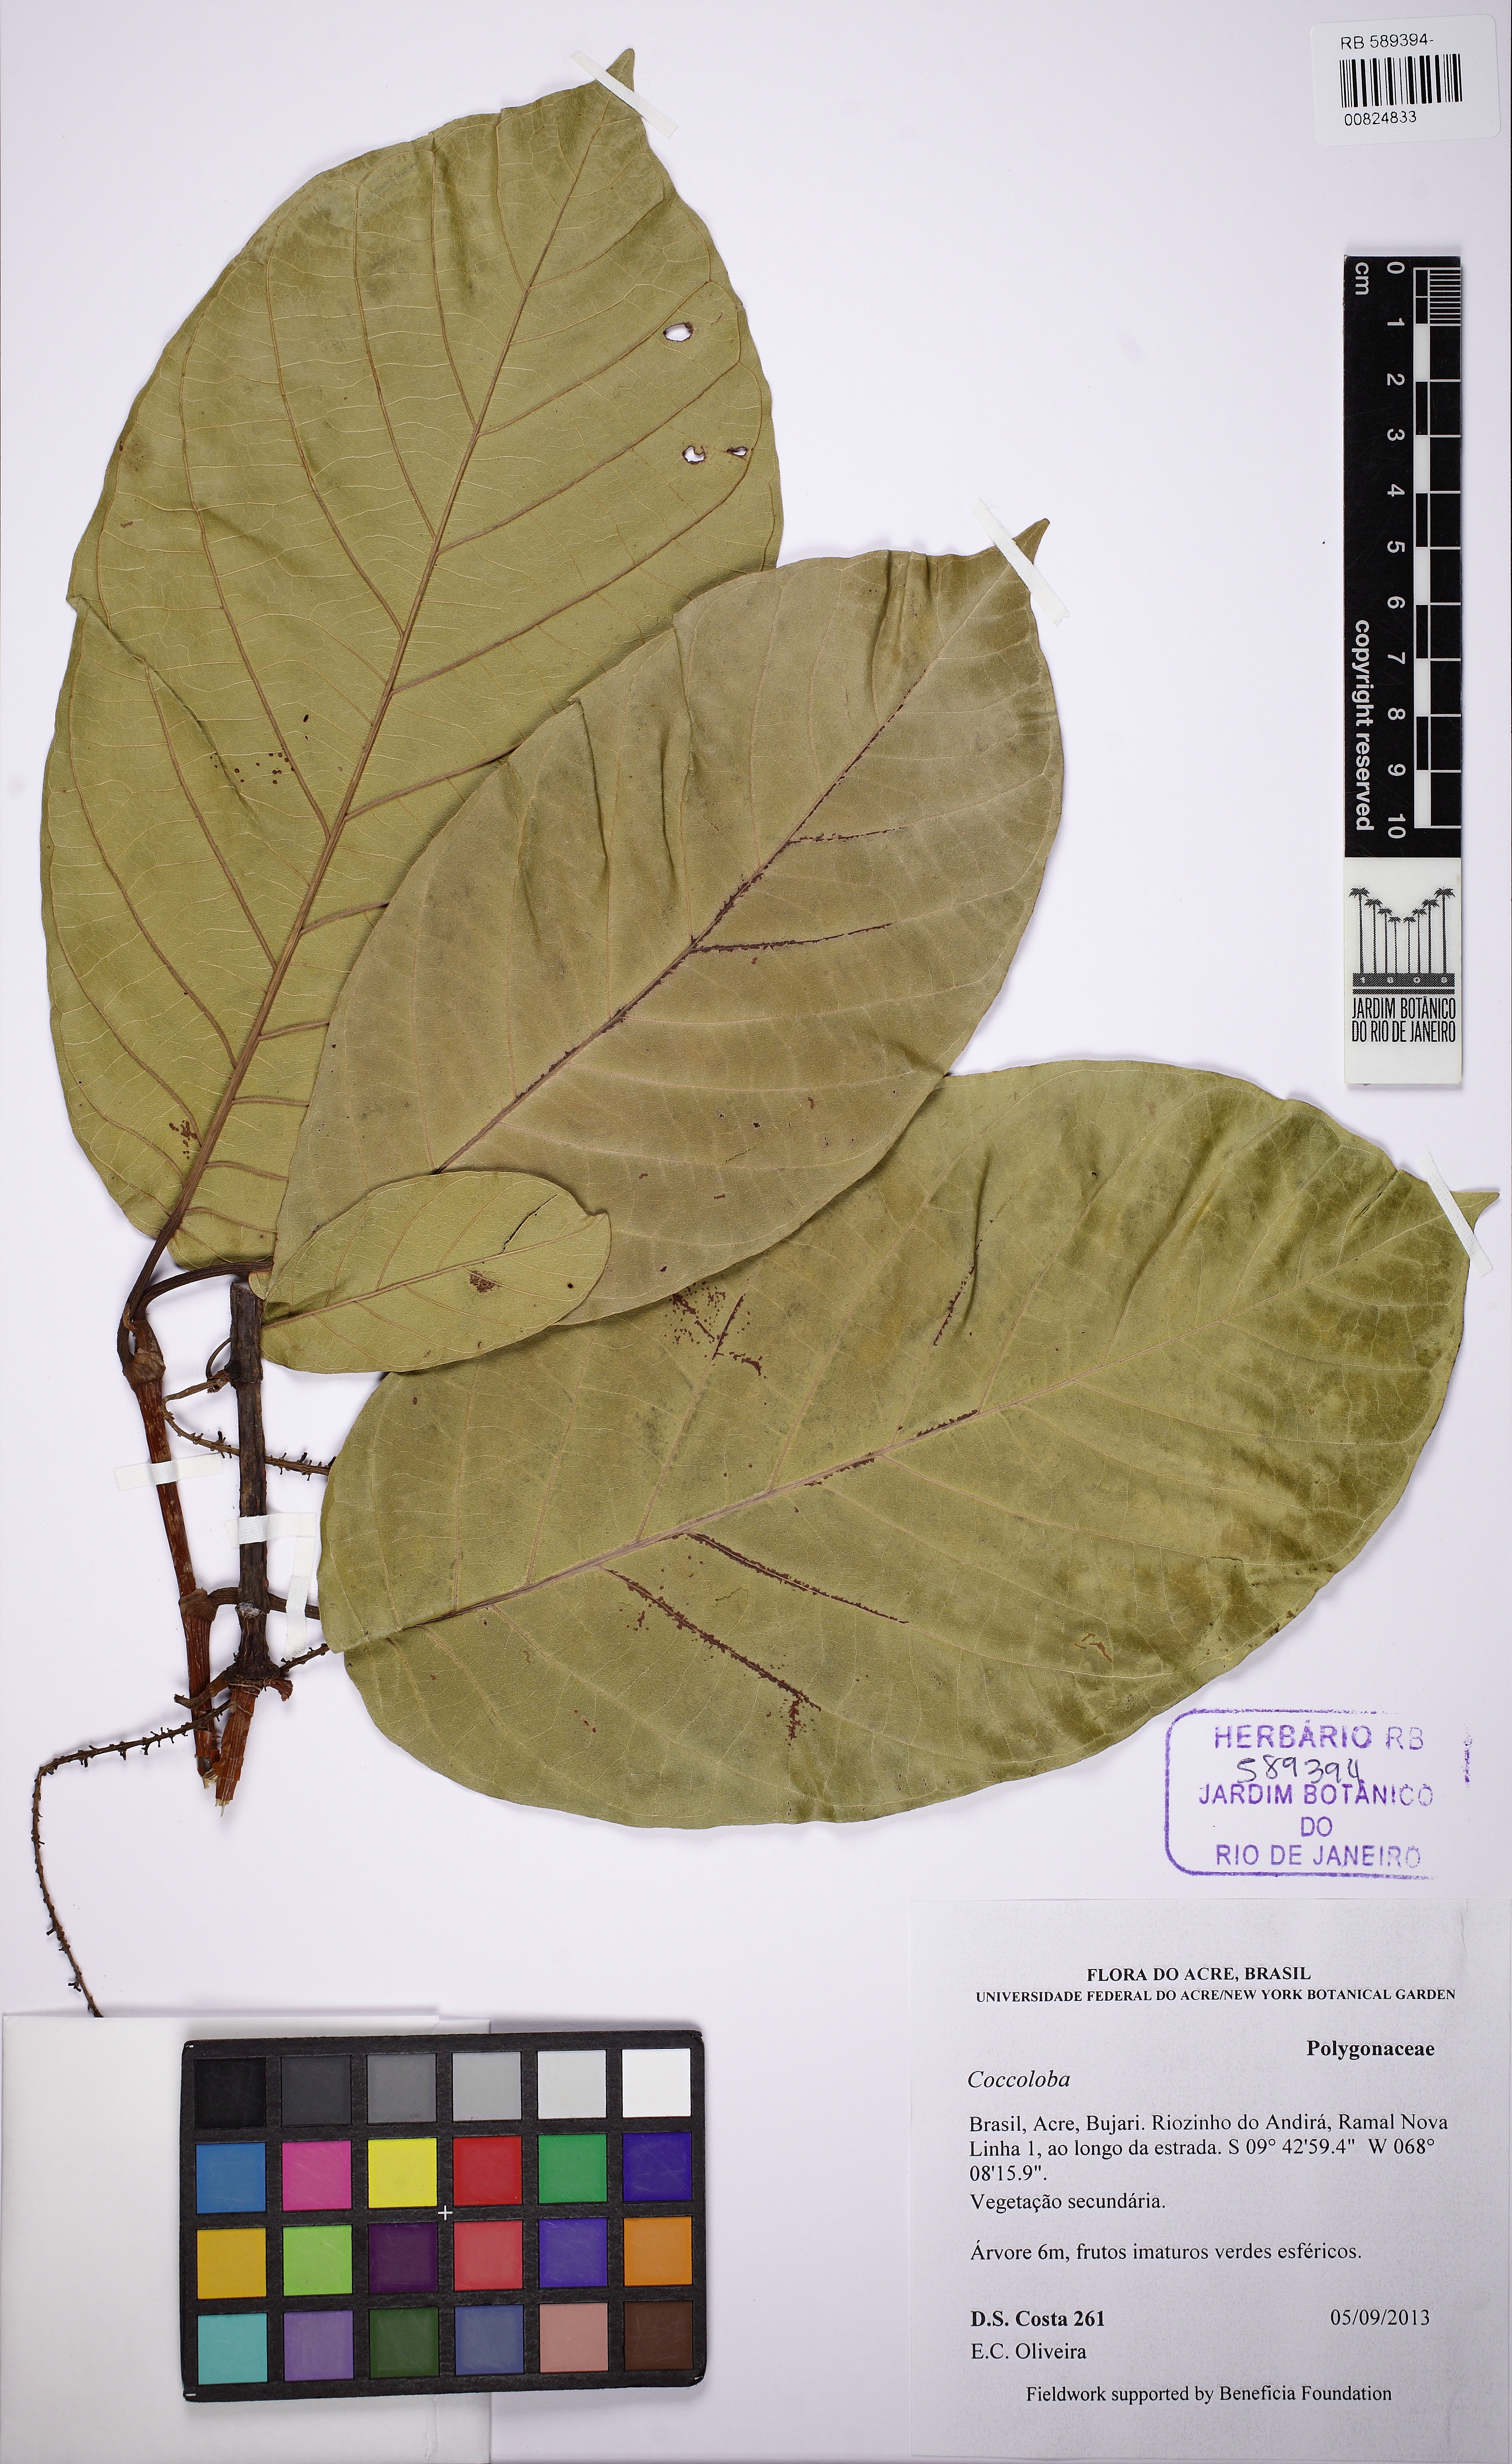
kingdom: Plantae
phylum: Tracheophyta
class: Magnoliopsida
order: Caryophyllales
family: Polygonaceae
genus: Coccoloba
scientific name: Coccoloba
